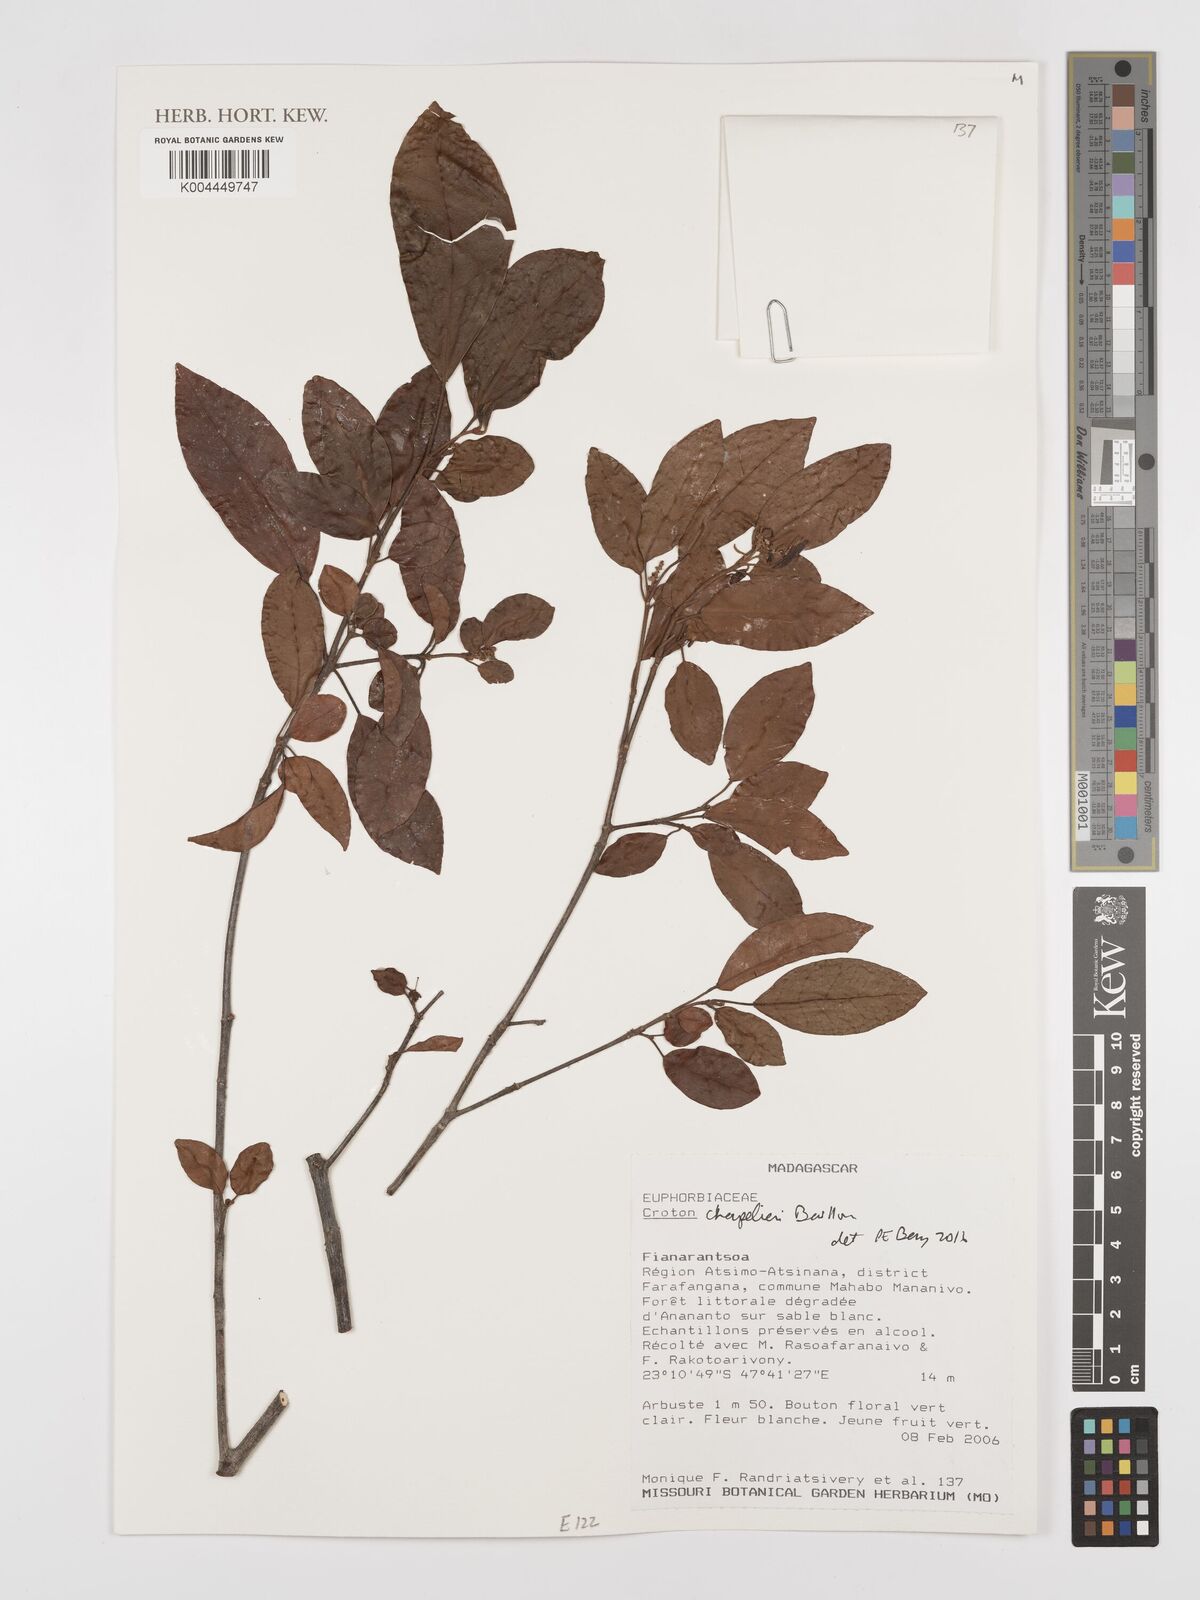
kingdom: Plantae
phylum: Tracheophyta
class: Magnoliopsida
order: Malpighiales
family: Euphorbiaceae
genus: Croton
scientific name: Croton chapelieri
